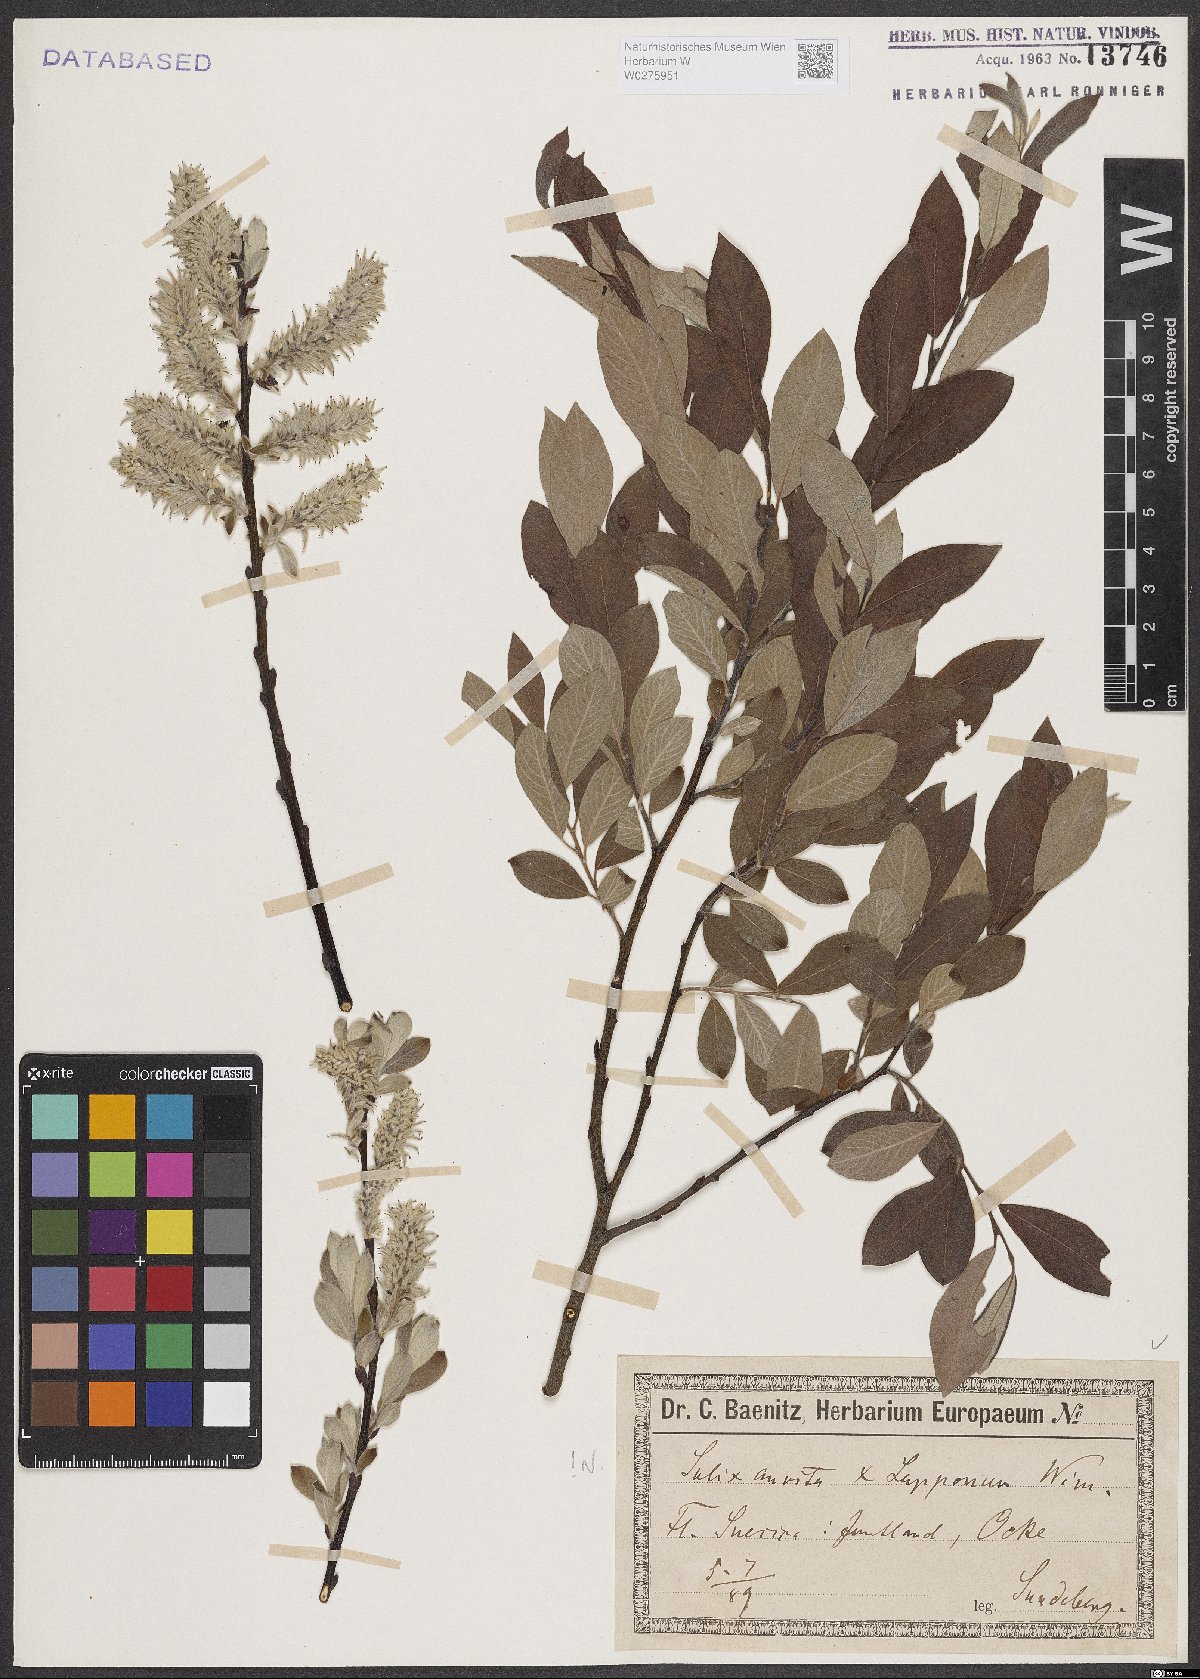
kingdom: Plantae
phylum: Tracheophyta
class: Magnoliopsida
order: Malpighiales
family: Salicaceae
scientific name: Salicaceae
